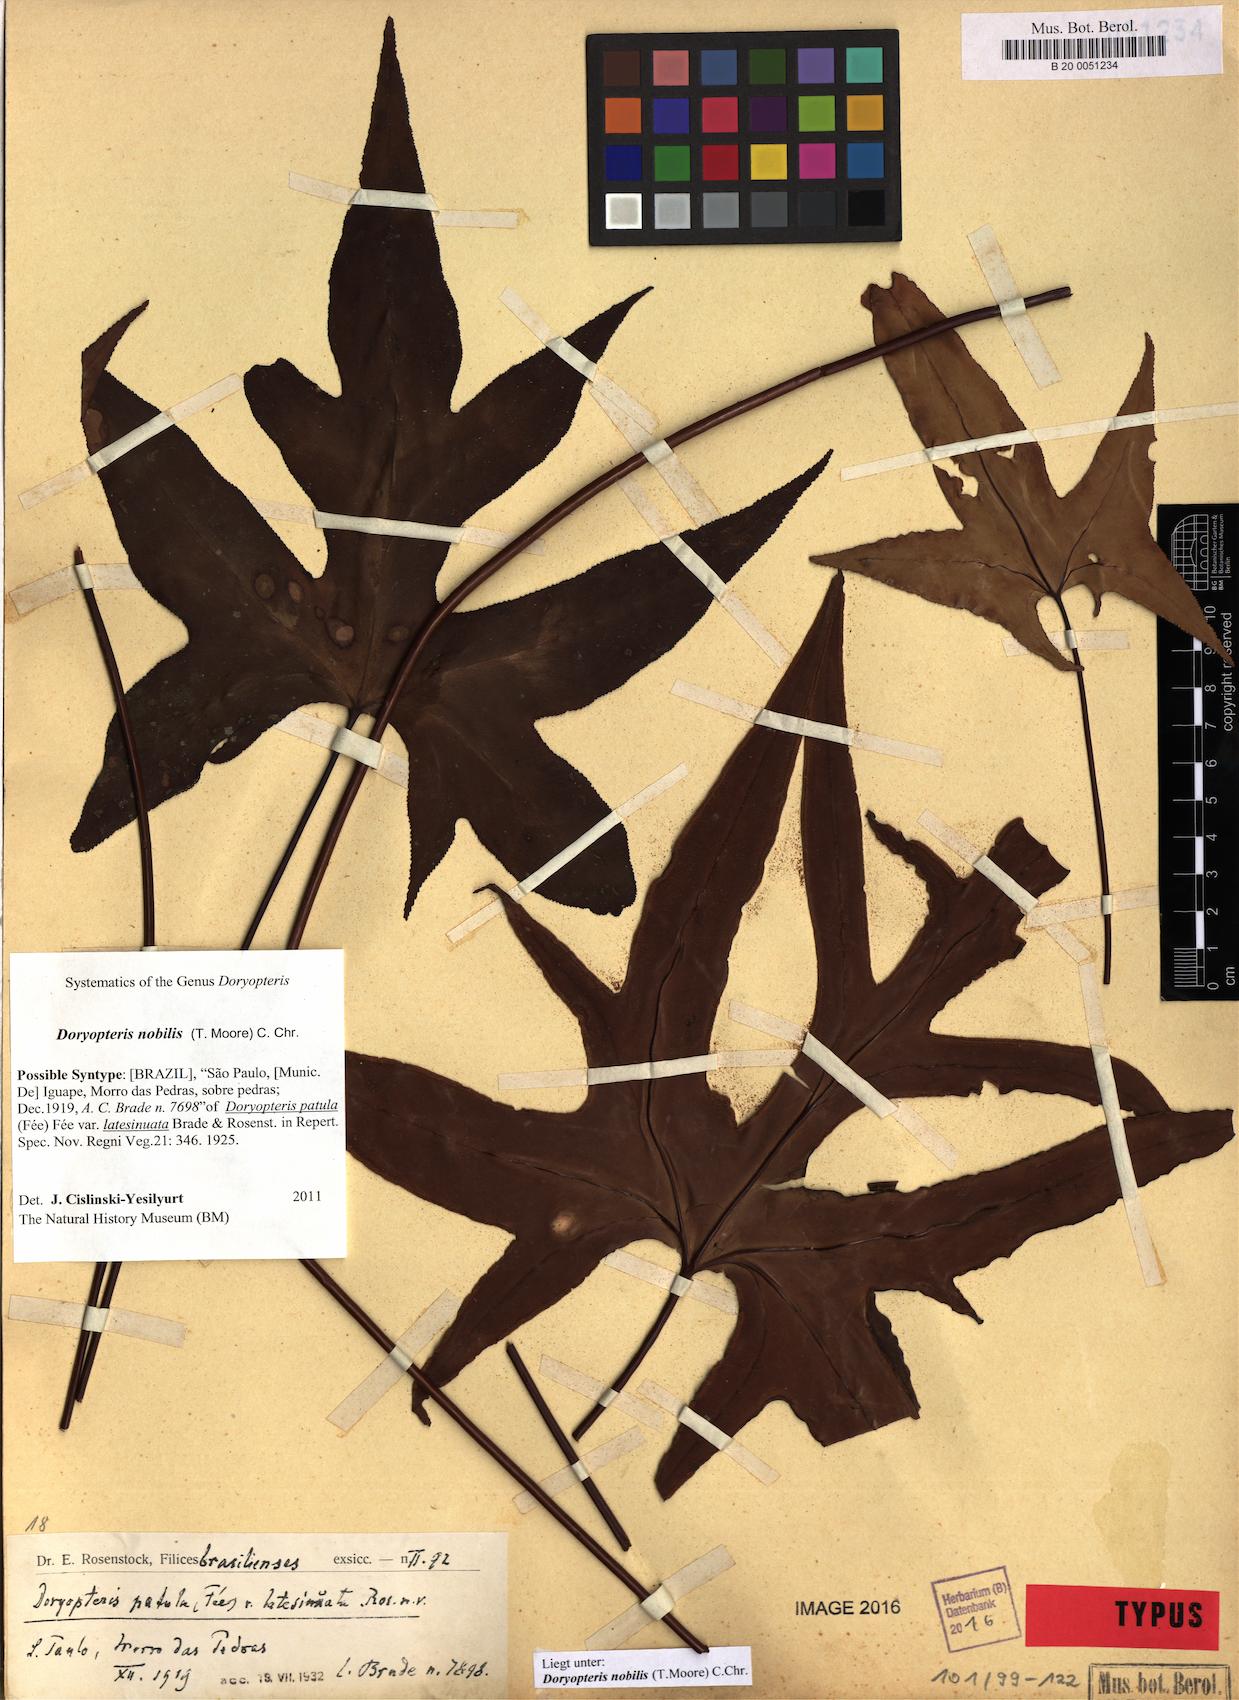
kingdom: Plantae
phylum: Tracheophyta
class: Polypodiopsida
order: Polypodiales
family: Pteridaceae
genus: Doryopteris
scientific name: Doryopteris nobilis
